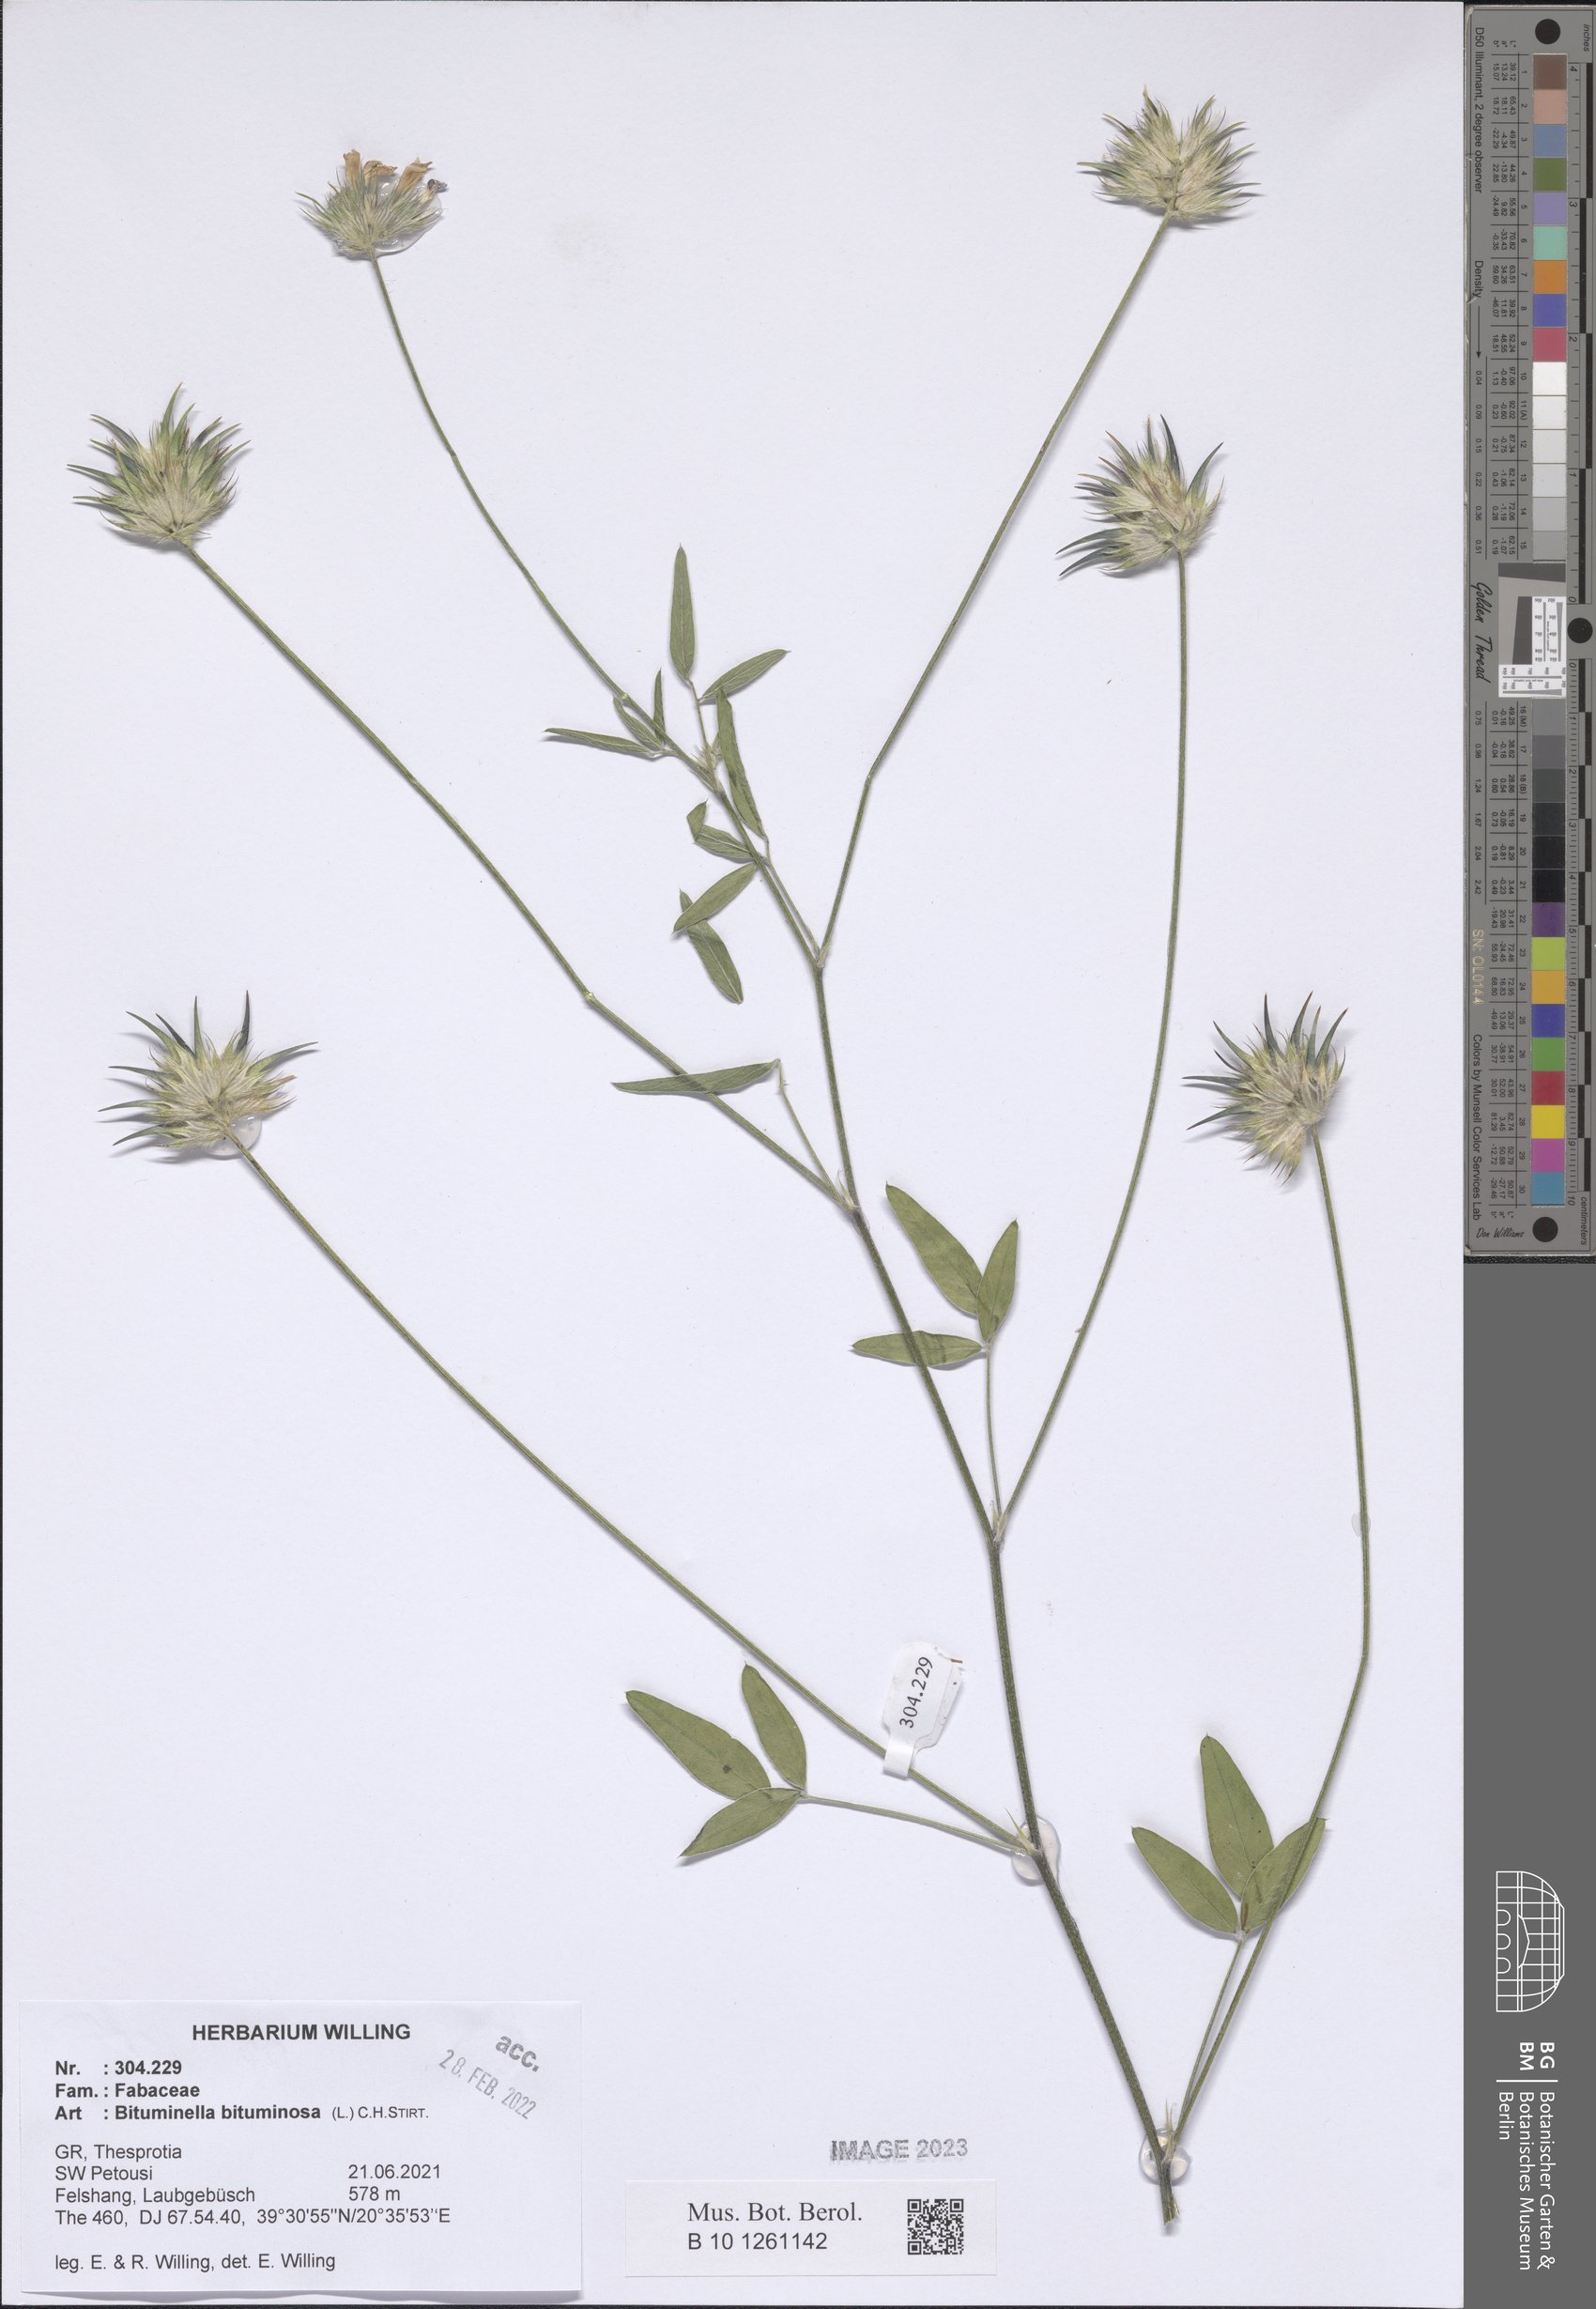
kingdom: Plantae
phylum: Tracheophyta
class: Magnoliopsida
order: Fabales
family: Fabaceae
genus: Bituminaria
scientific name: Bituminaria bituminosa
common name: Arabian pea
